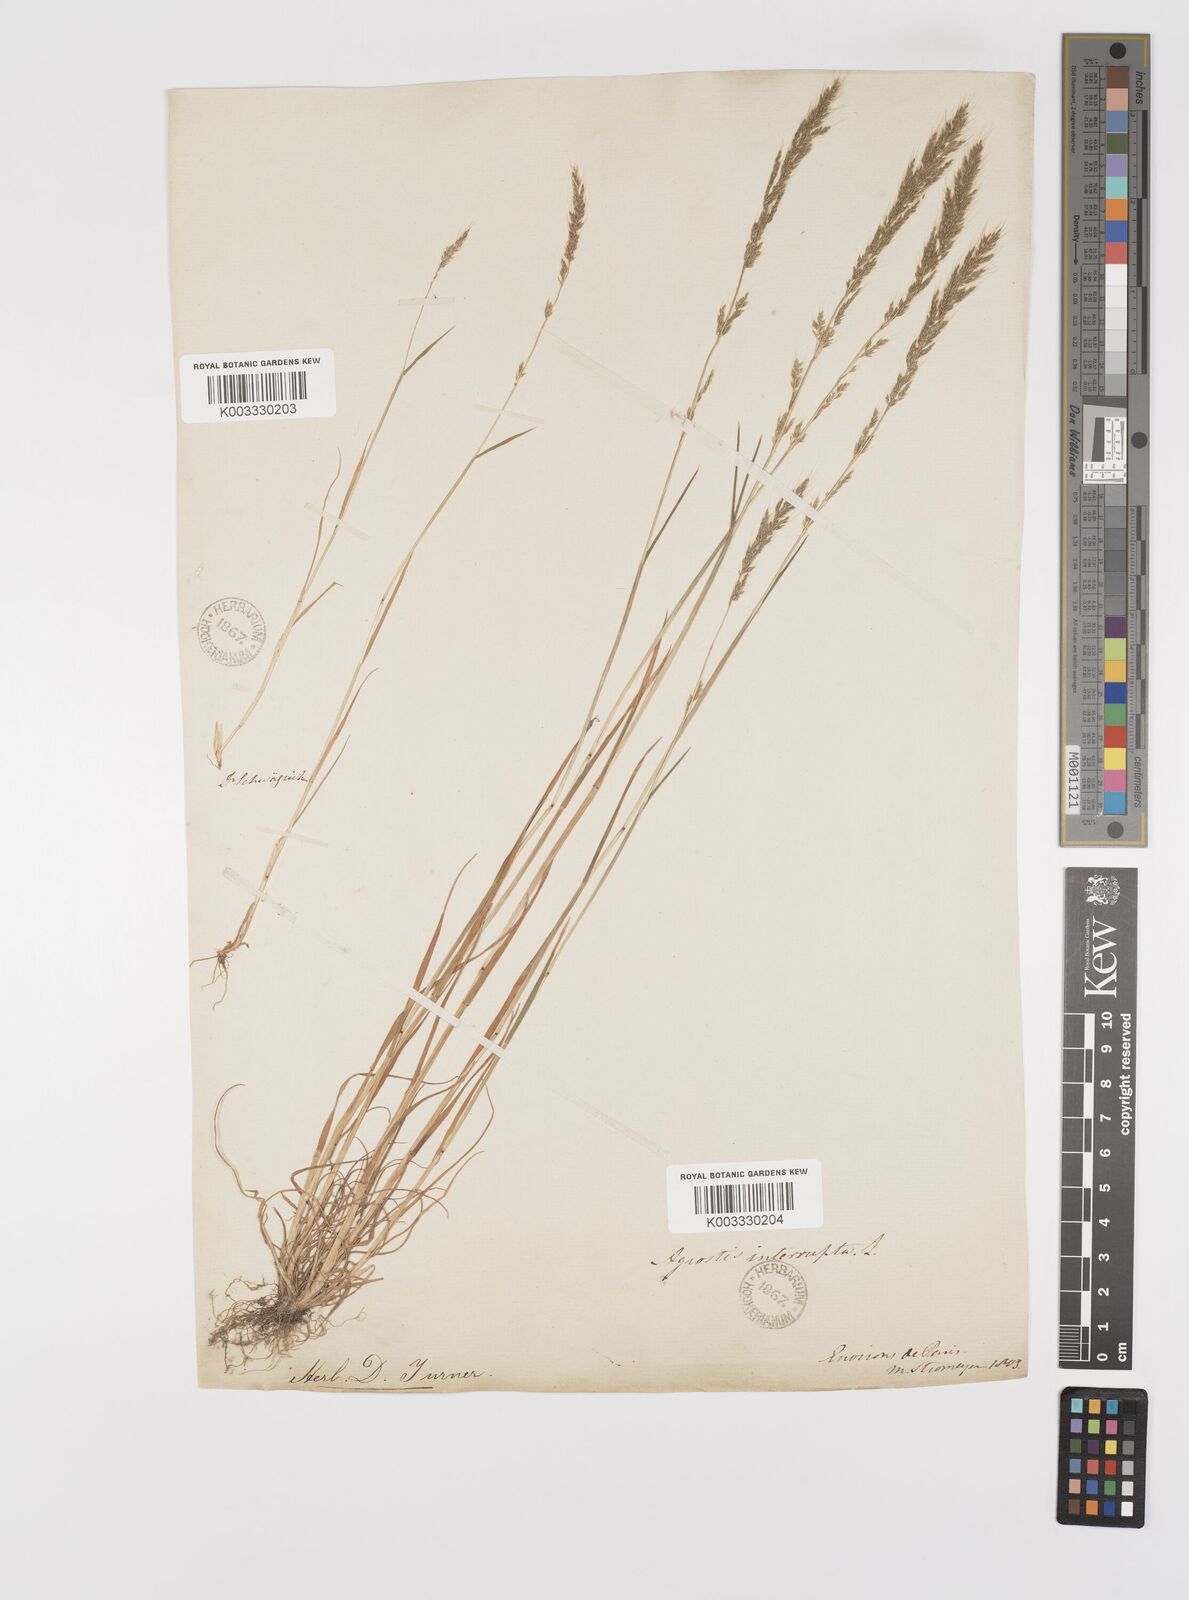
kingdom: Plantae
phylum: Tracheophyta
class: Liliopsida
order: Poales
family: Poaceae
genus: Apera
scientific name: Apera interrupta
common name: Dense silky-bent
